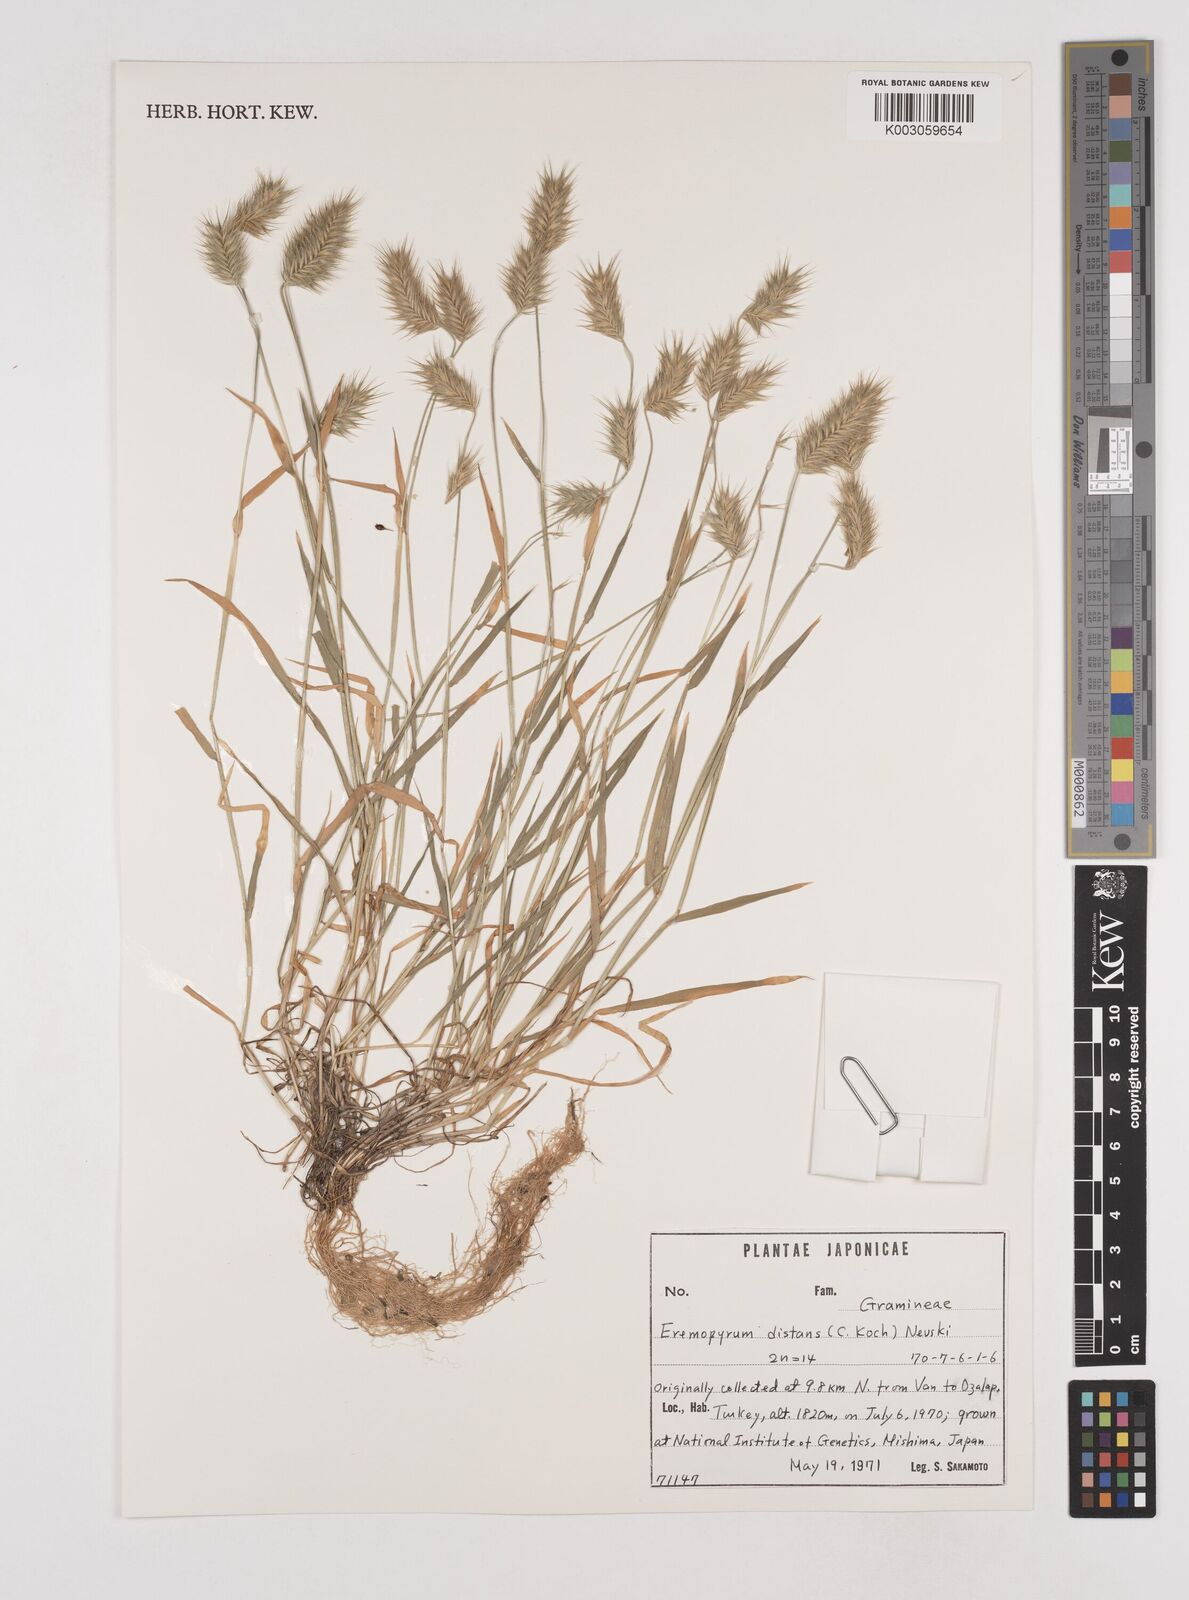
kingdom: Plantae
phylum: Tracheophyta
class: Liliopsida
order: Poales
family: Poaceae
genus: Eremopyrum
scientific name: Eremopyrum distans
